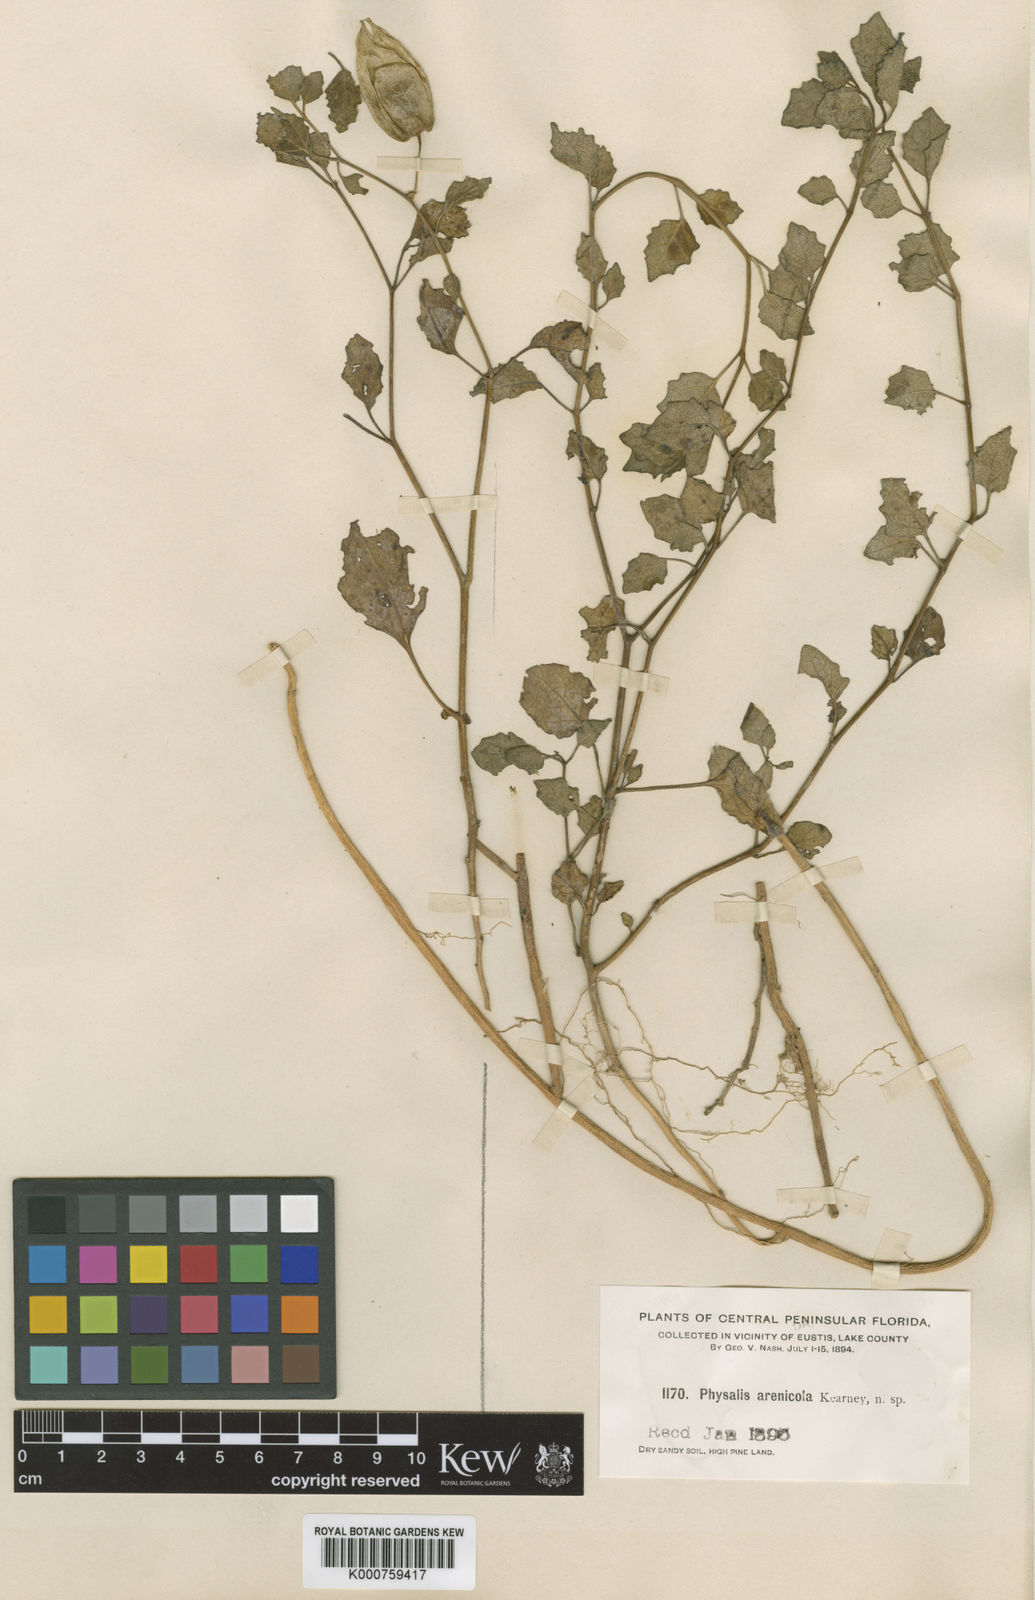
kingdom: Plantae
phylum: Tracheophyta
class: Magnoliopsida
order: Solanales
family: Solanaceae
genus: Physalis
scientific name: Physalis arenicola
